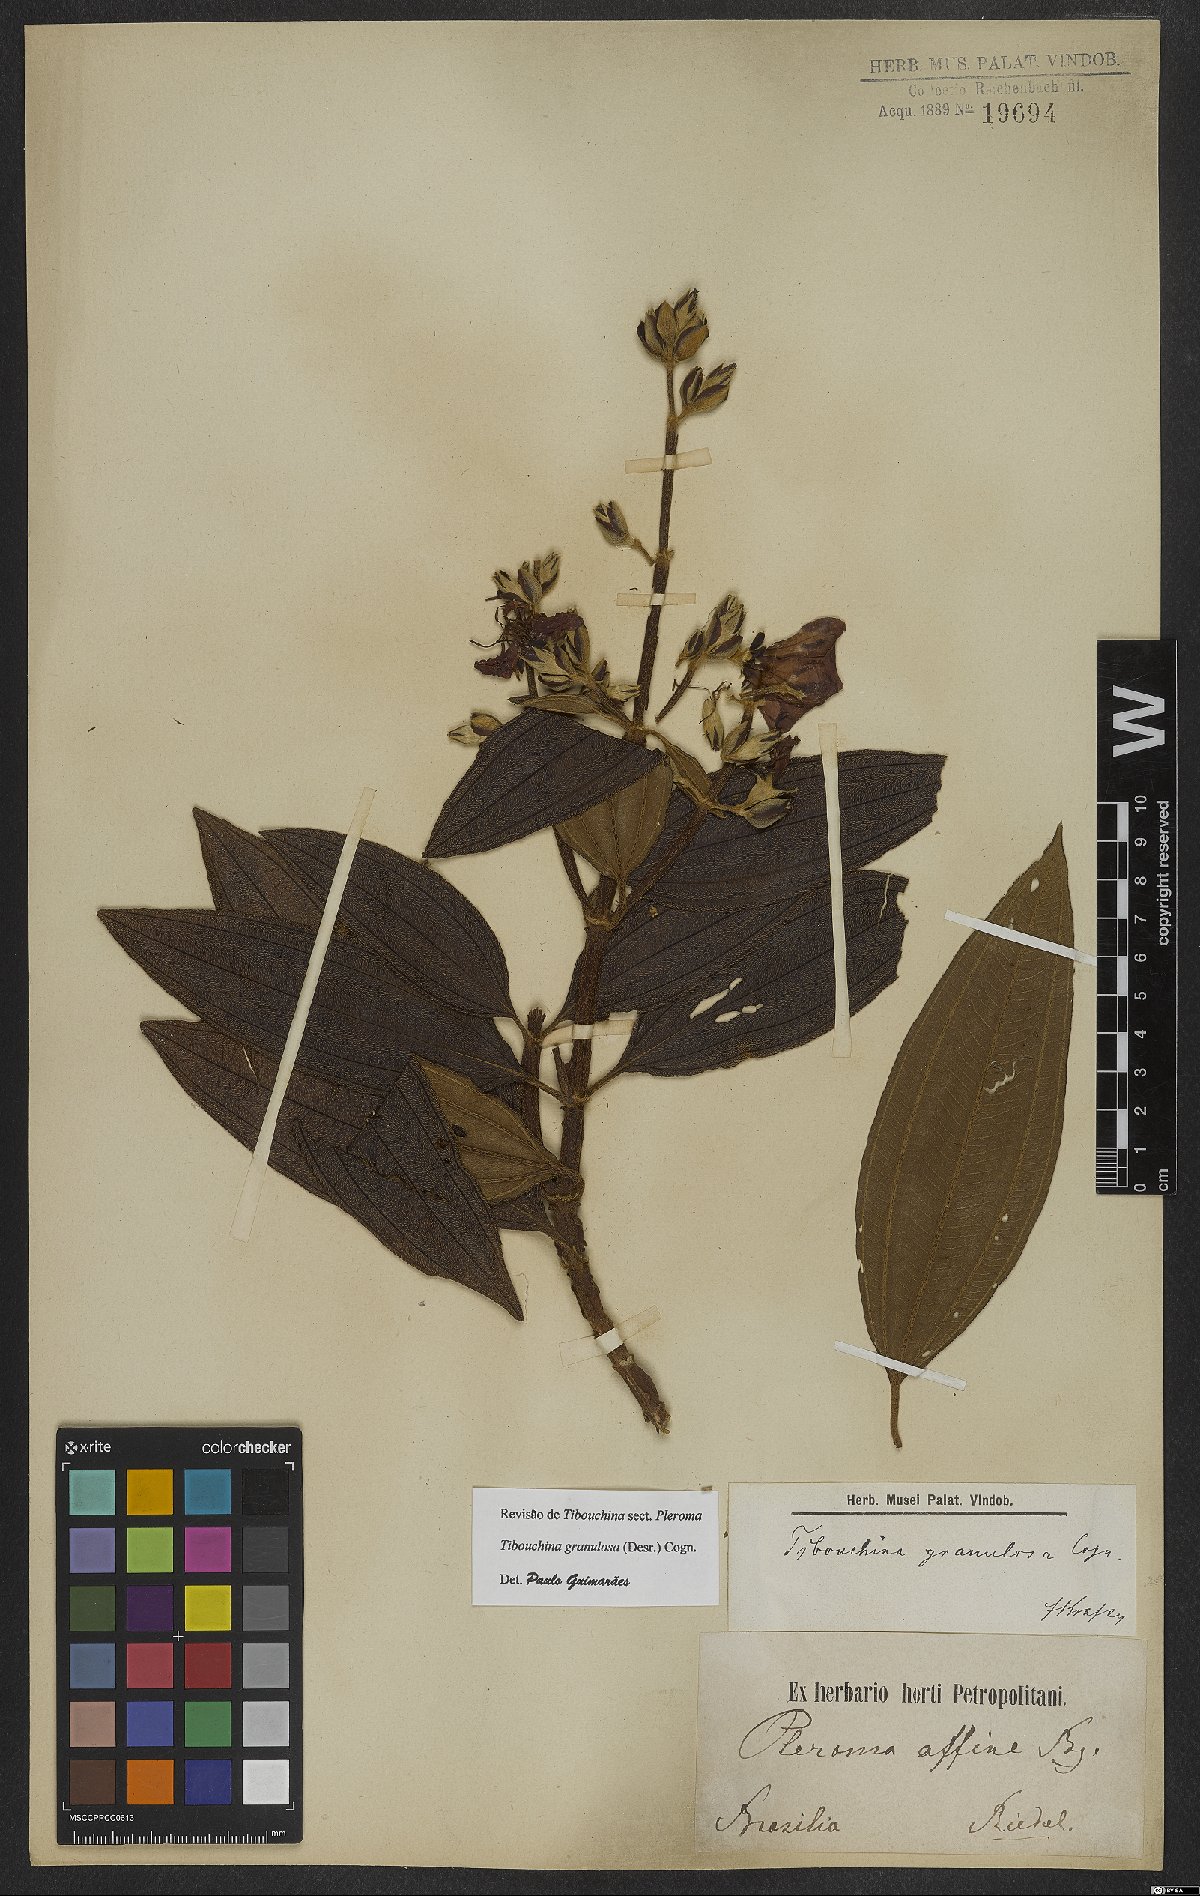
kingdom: Plantae
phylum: Tracheophyta
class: Magnoliopsida
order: Myrtales
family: Melastomataceae
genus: Pleroma
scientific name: Pleroma granulosum
